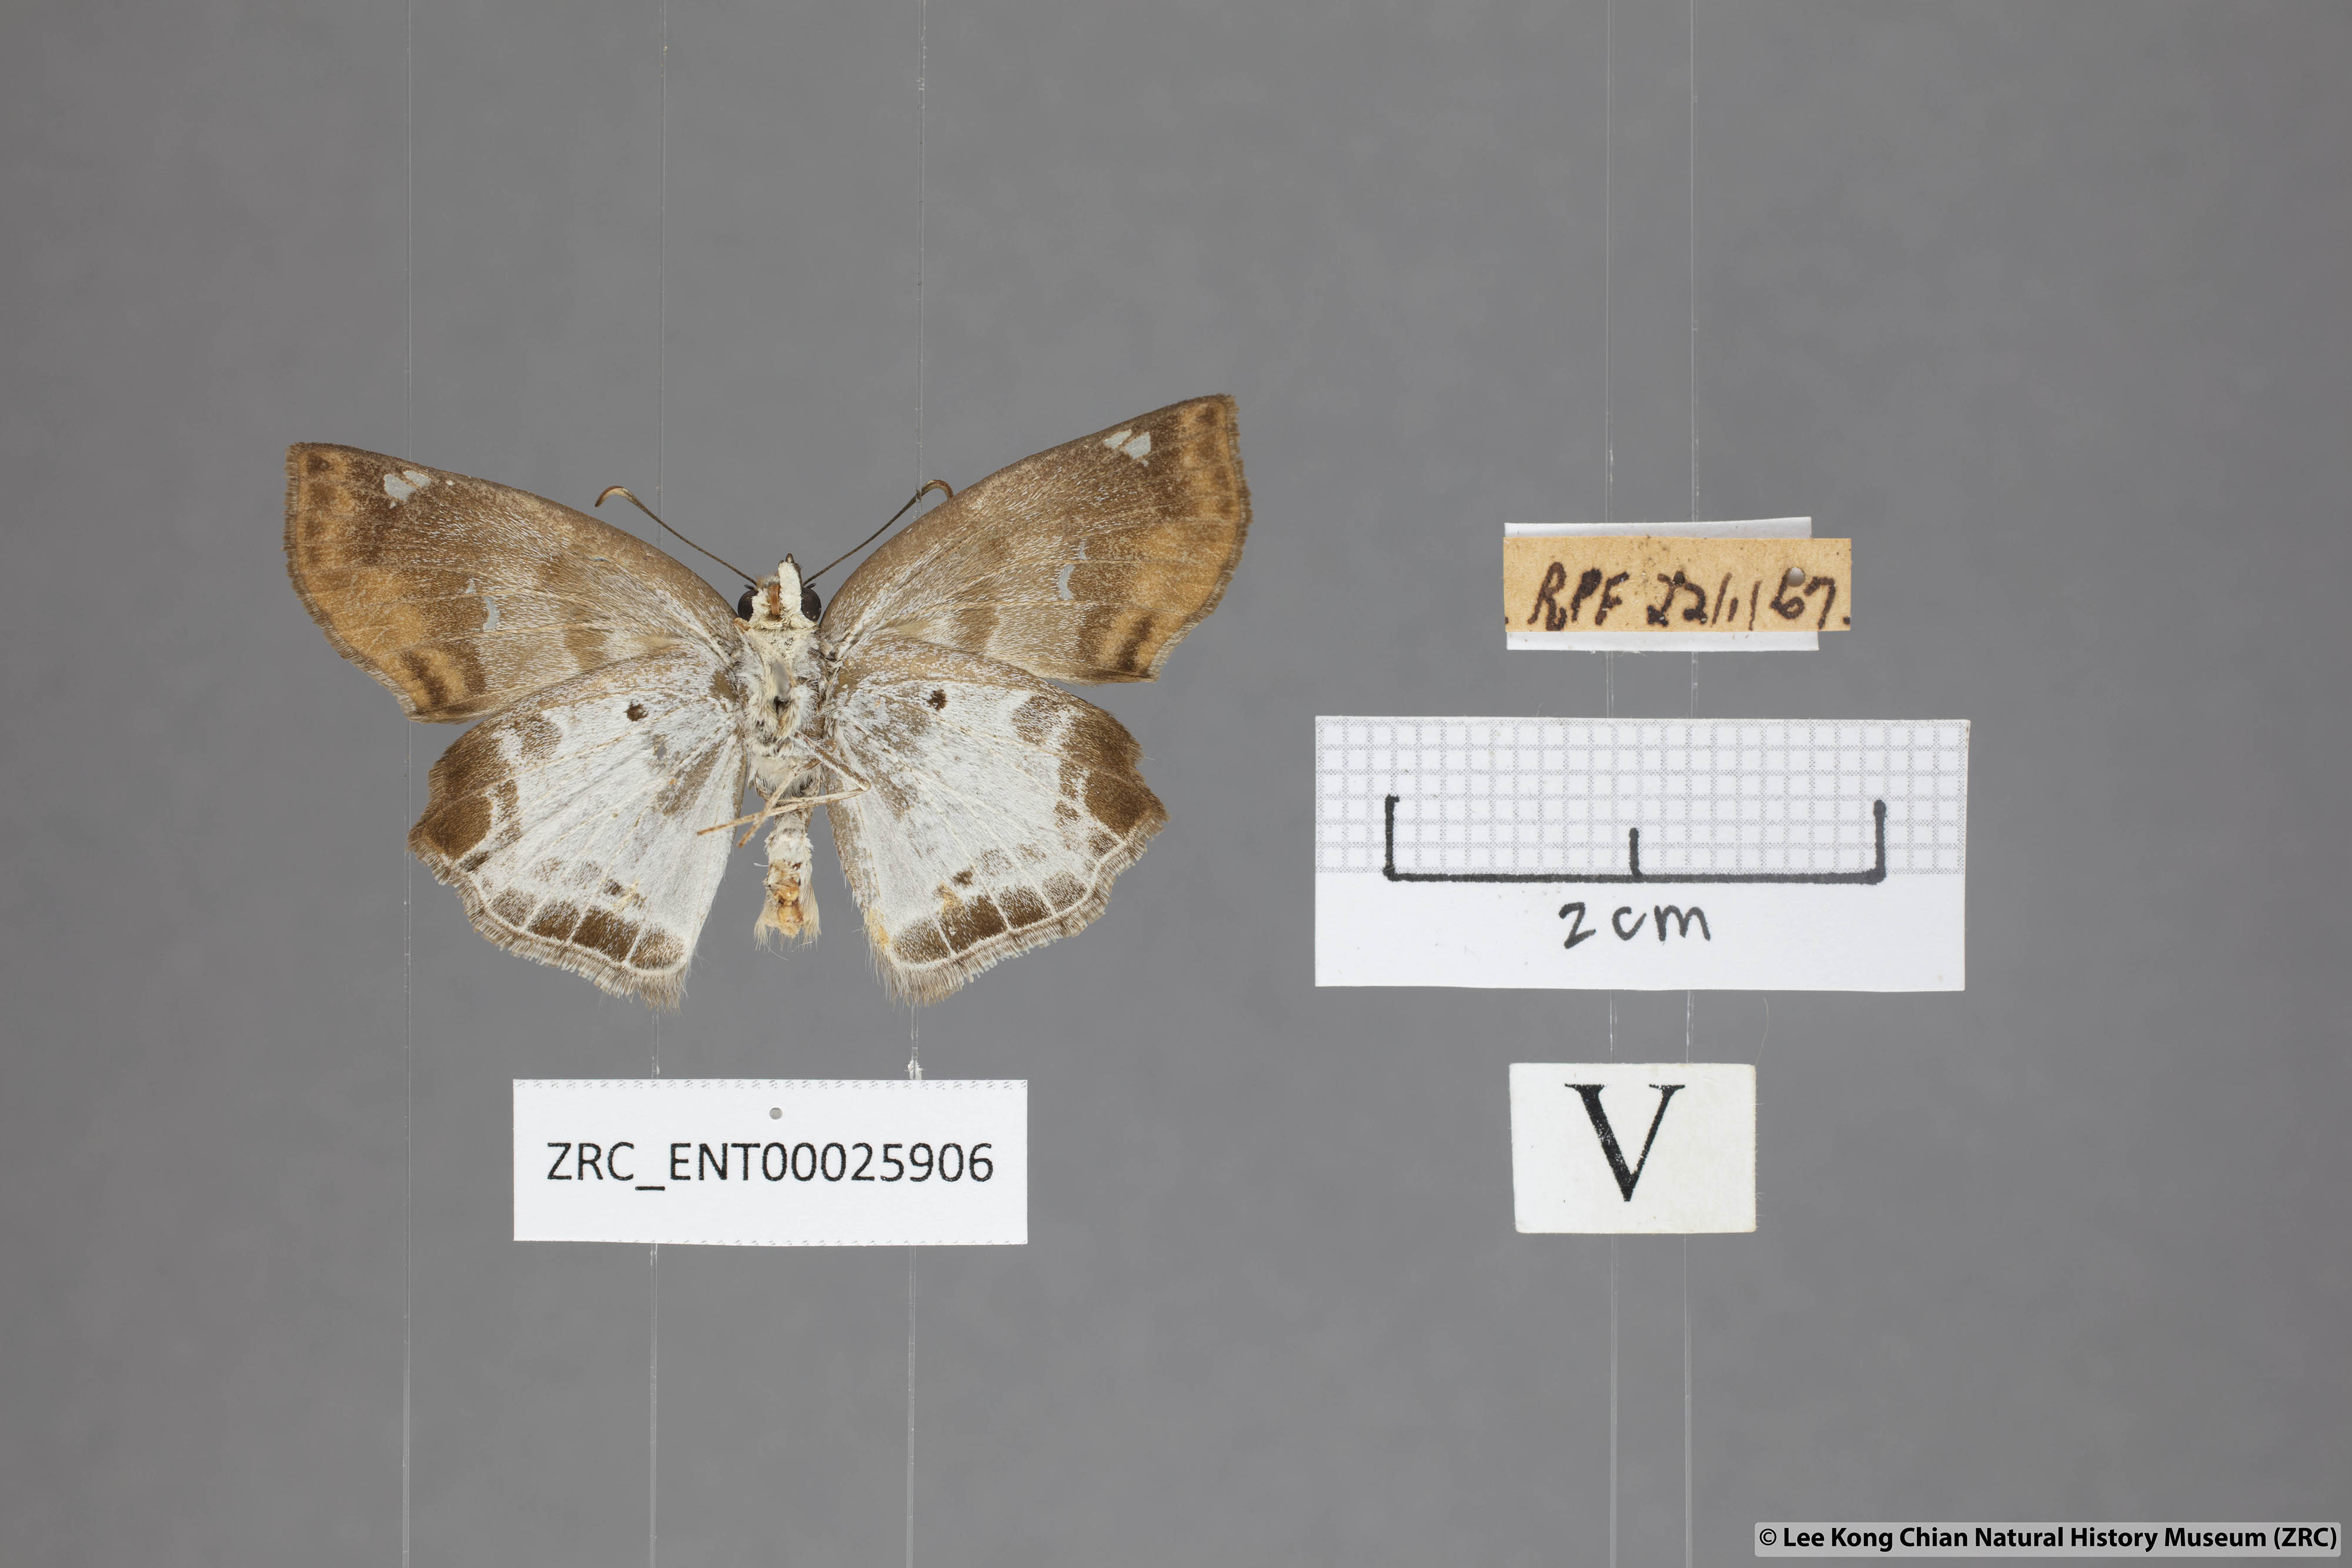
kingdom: Animalia
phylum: Arthropoda
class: Insecta
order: Lepidoptera
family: Hesperiidae
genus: Odontoptilum
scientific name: Odontoptilum angulata
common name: Chestnut banded angle
